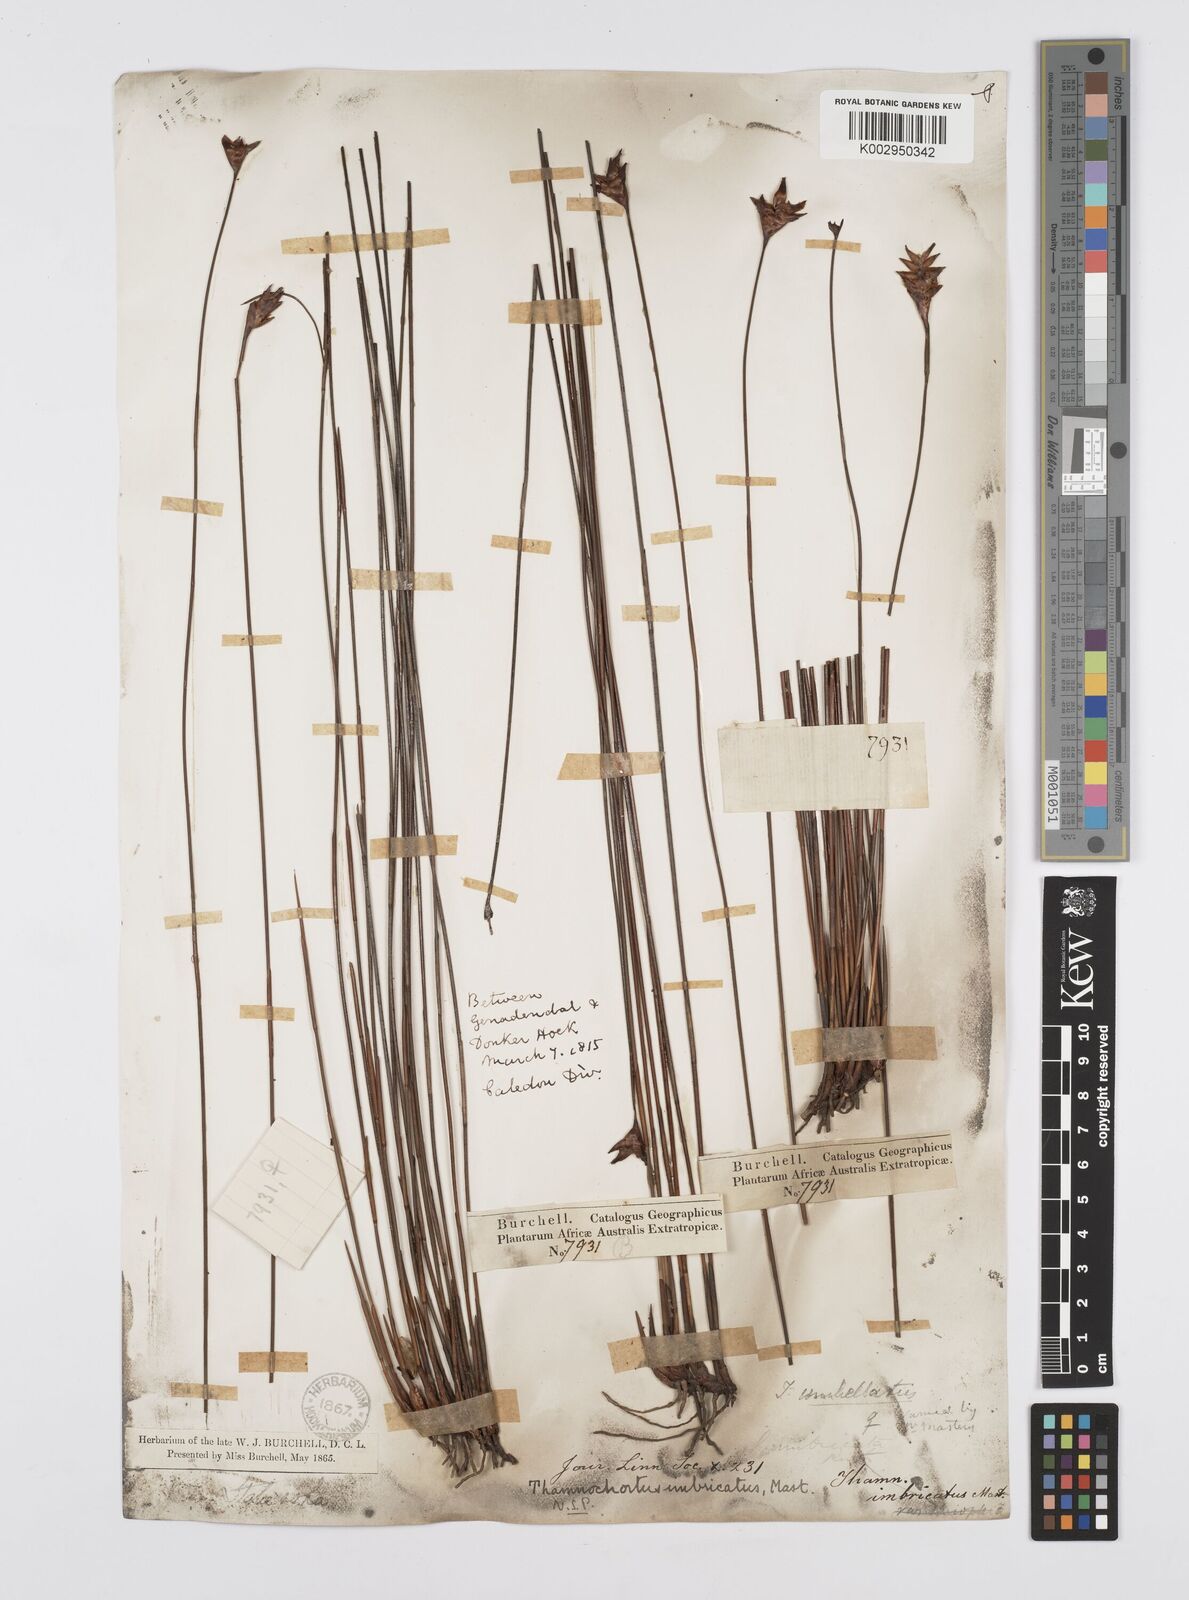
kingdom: Plantae
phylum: Tracheophyta
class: Liliopsida
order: Poales
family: Restionaceae
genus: Staberoha
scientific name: Staberoha distachyos
